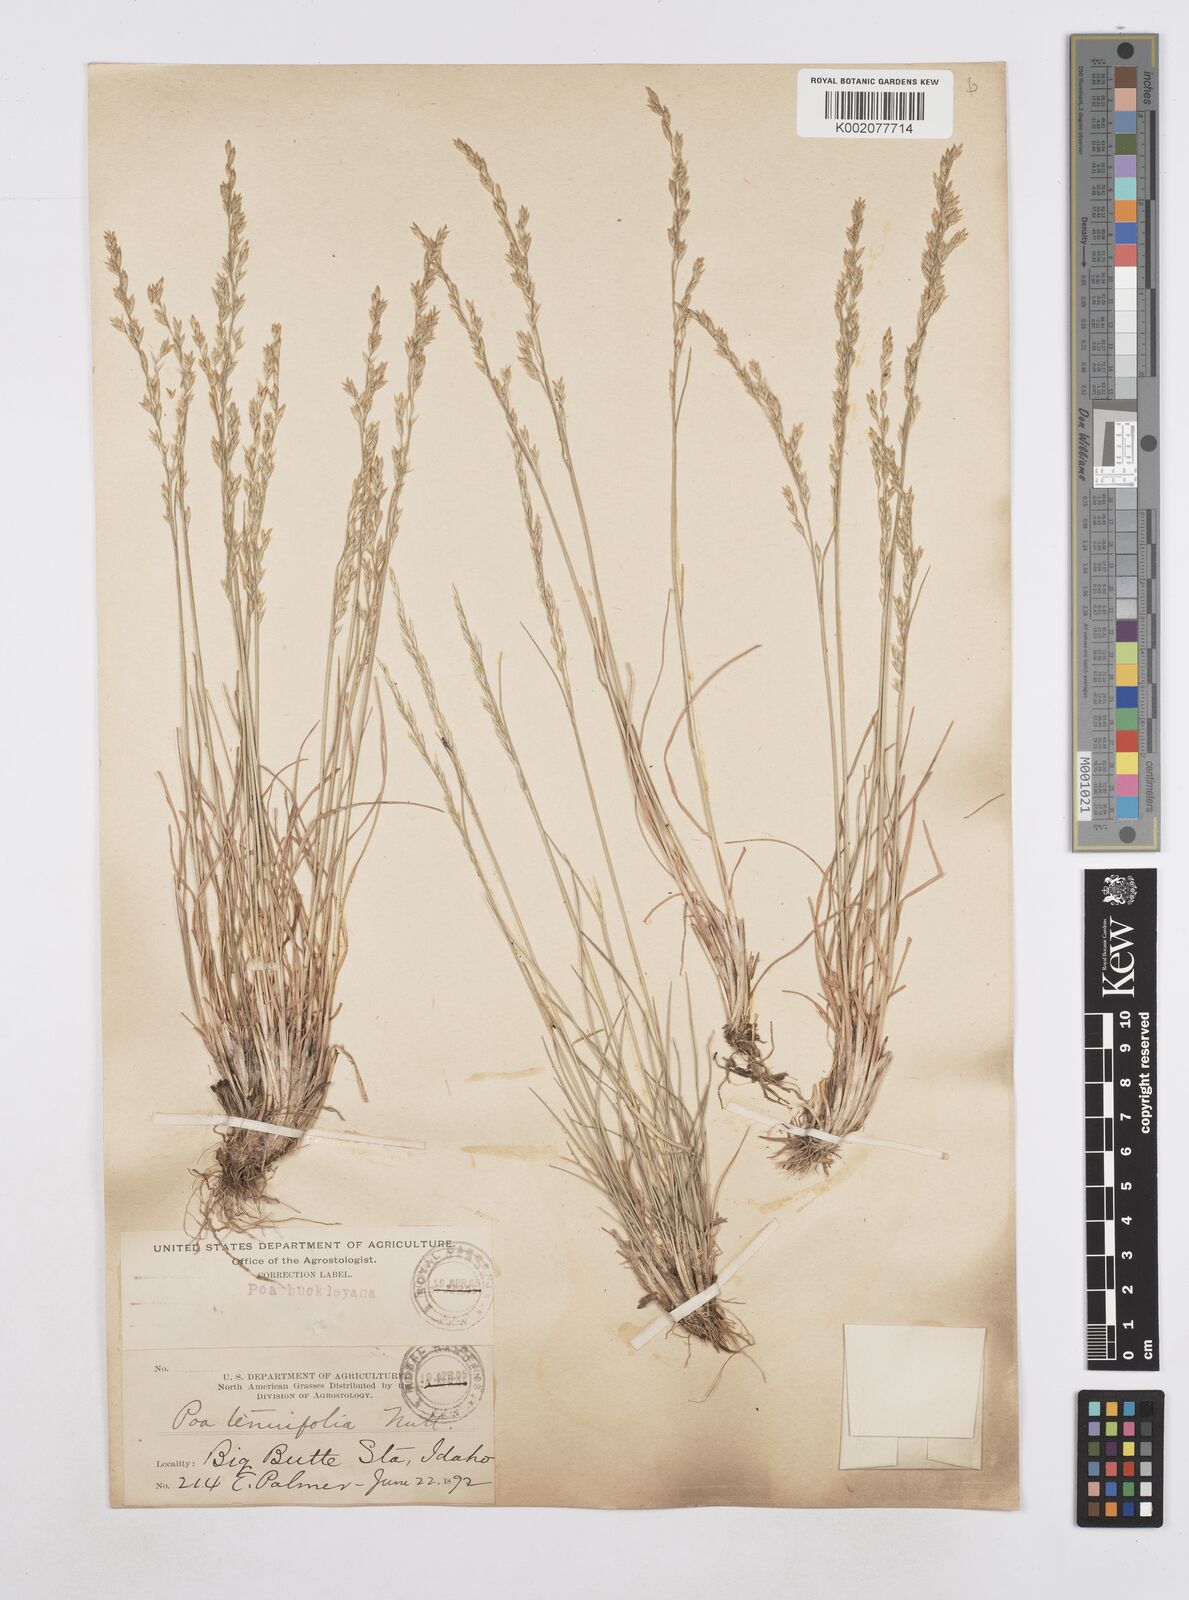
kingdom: Plantae
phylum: Tracheophyta
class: Liliopsida
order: Poales
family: Poaceae
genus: Poa
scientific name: Poa secunda
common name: Sandberg bluegrass
